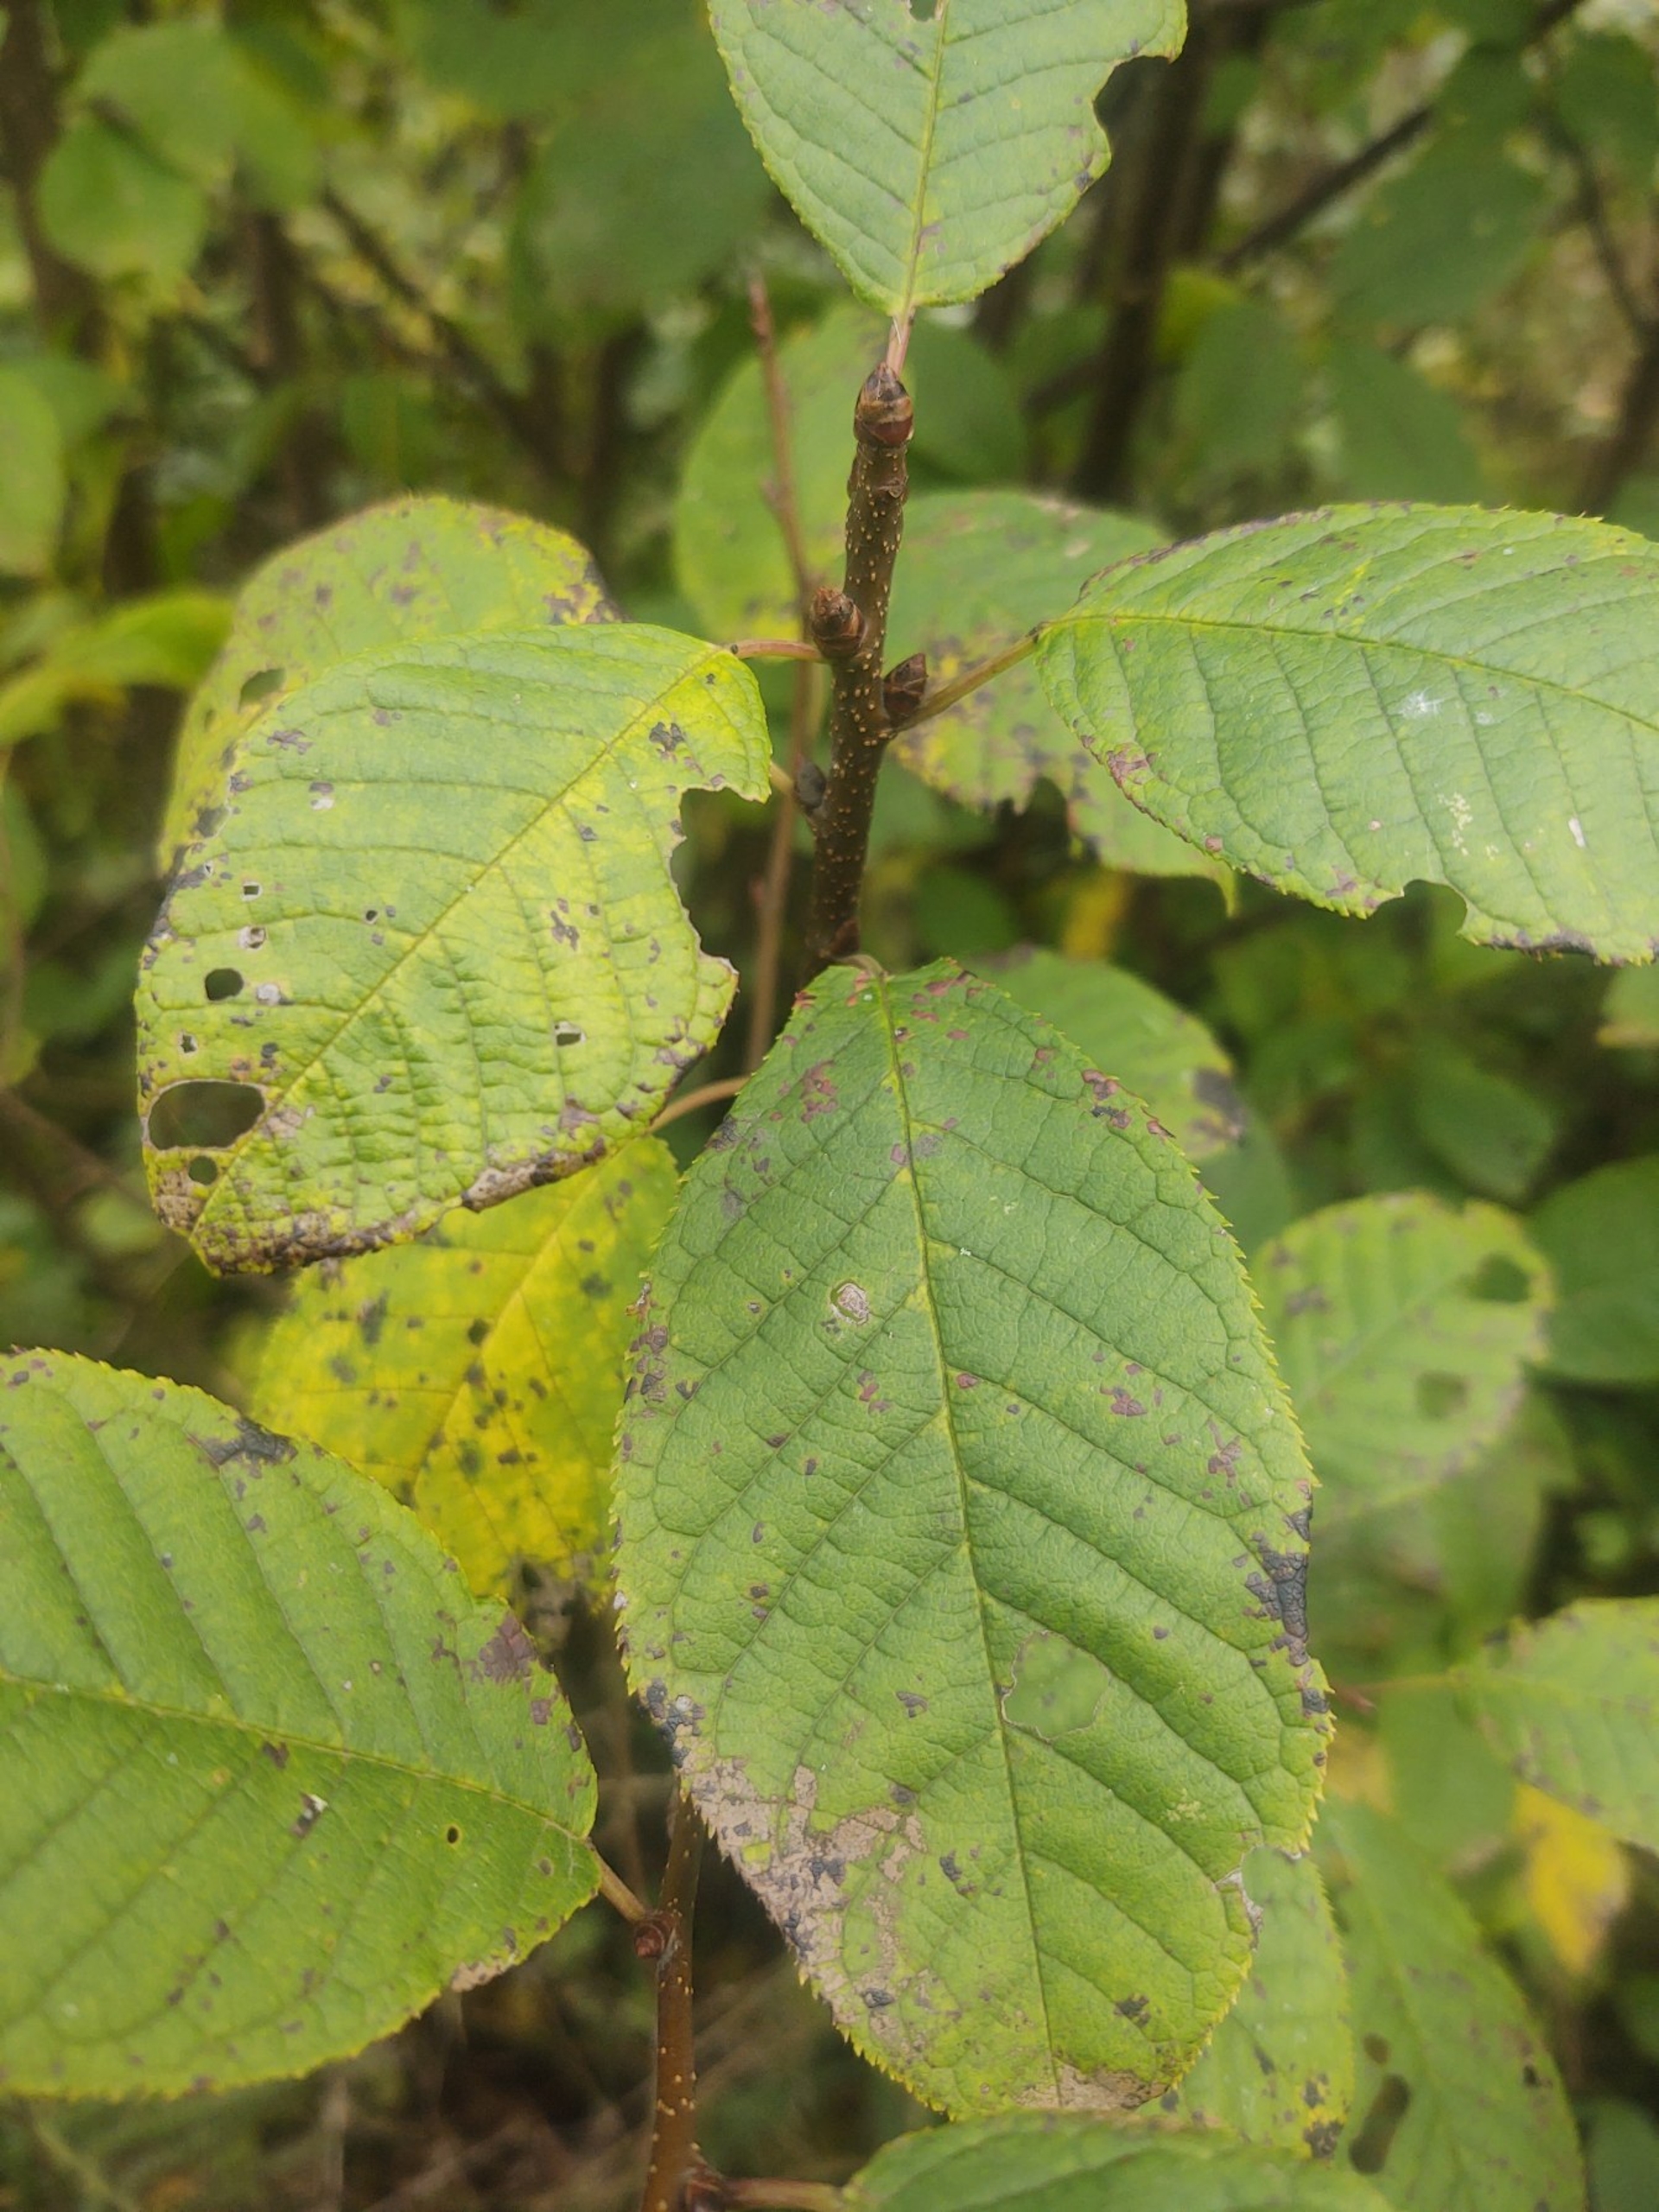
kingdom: Plantae
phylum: Tracheophyta
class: Magnoliopsida
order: Rosales
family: Rosaceae
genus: Prunus
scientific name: Prunus padus
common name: Almindelig hæg
